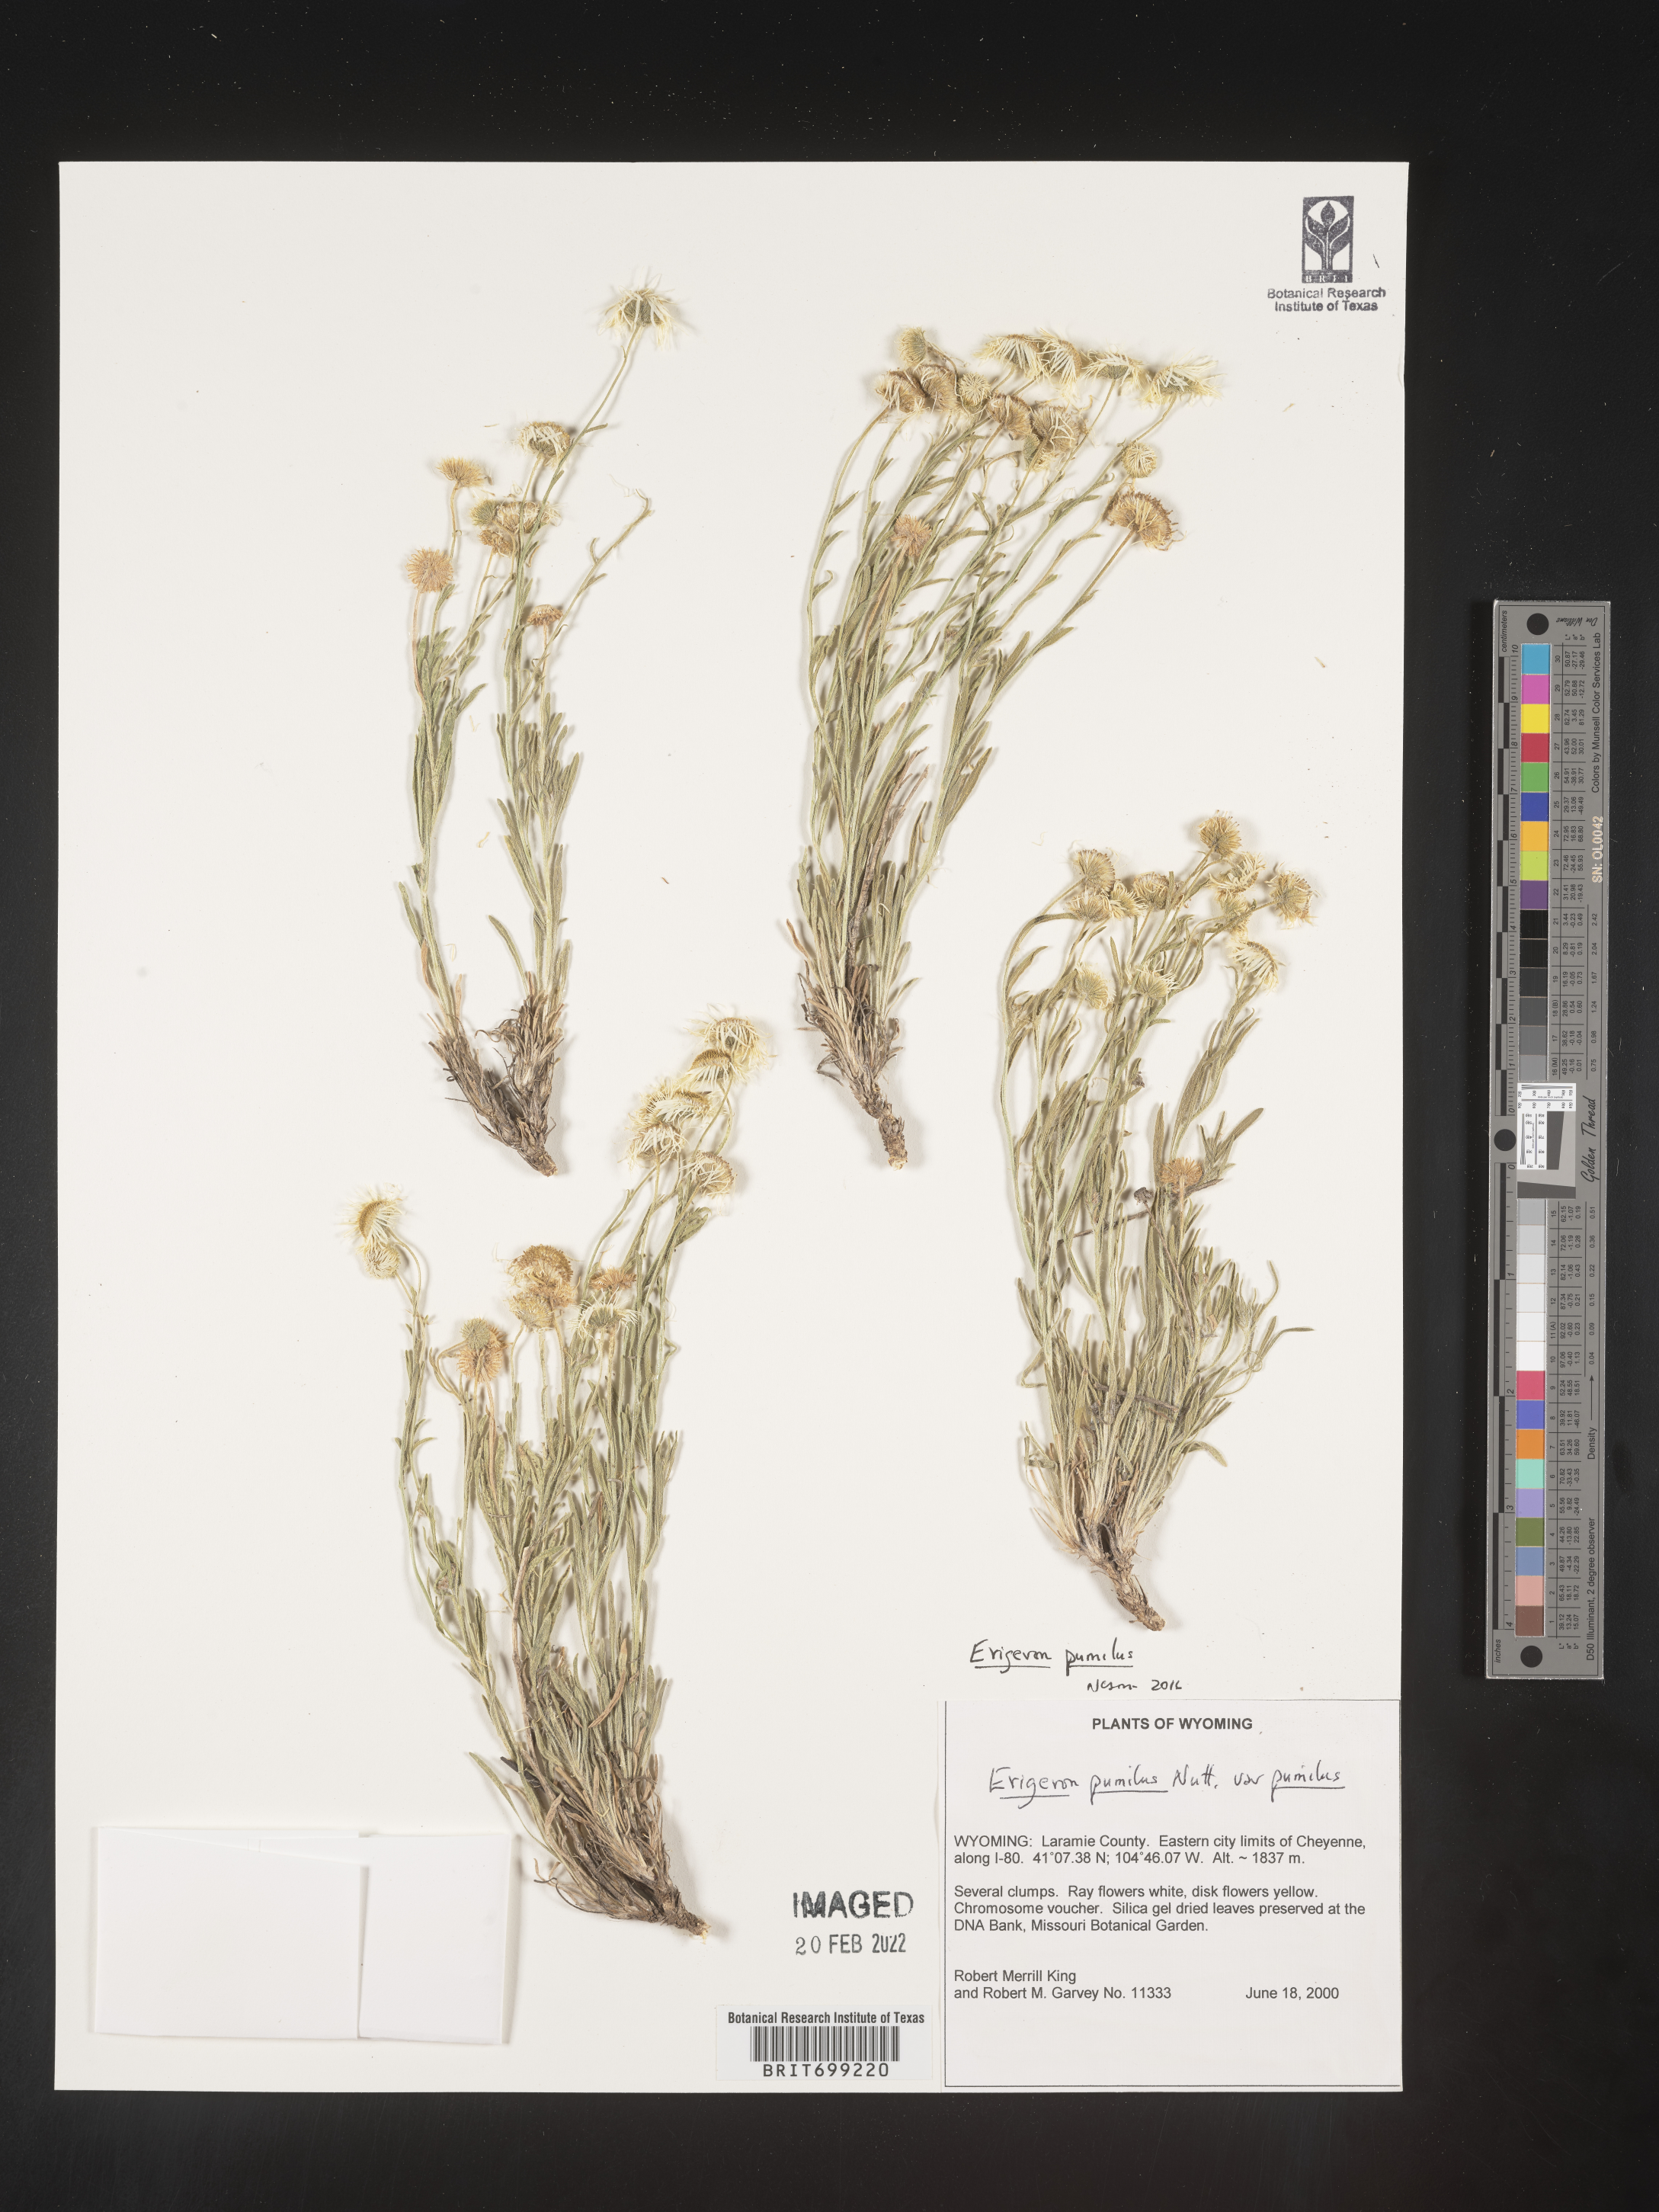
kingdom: Plantae
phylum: Tracheophyta
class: Magnoliopsida
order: Asterales
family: Asteraceae
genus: Erigeron
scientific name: Erigeron pumilus
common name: Shaggy fleabane
